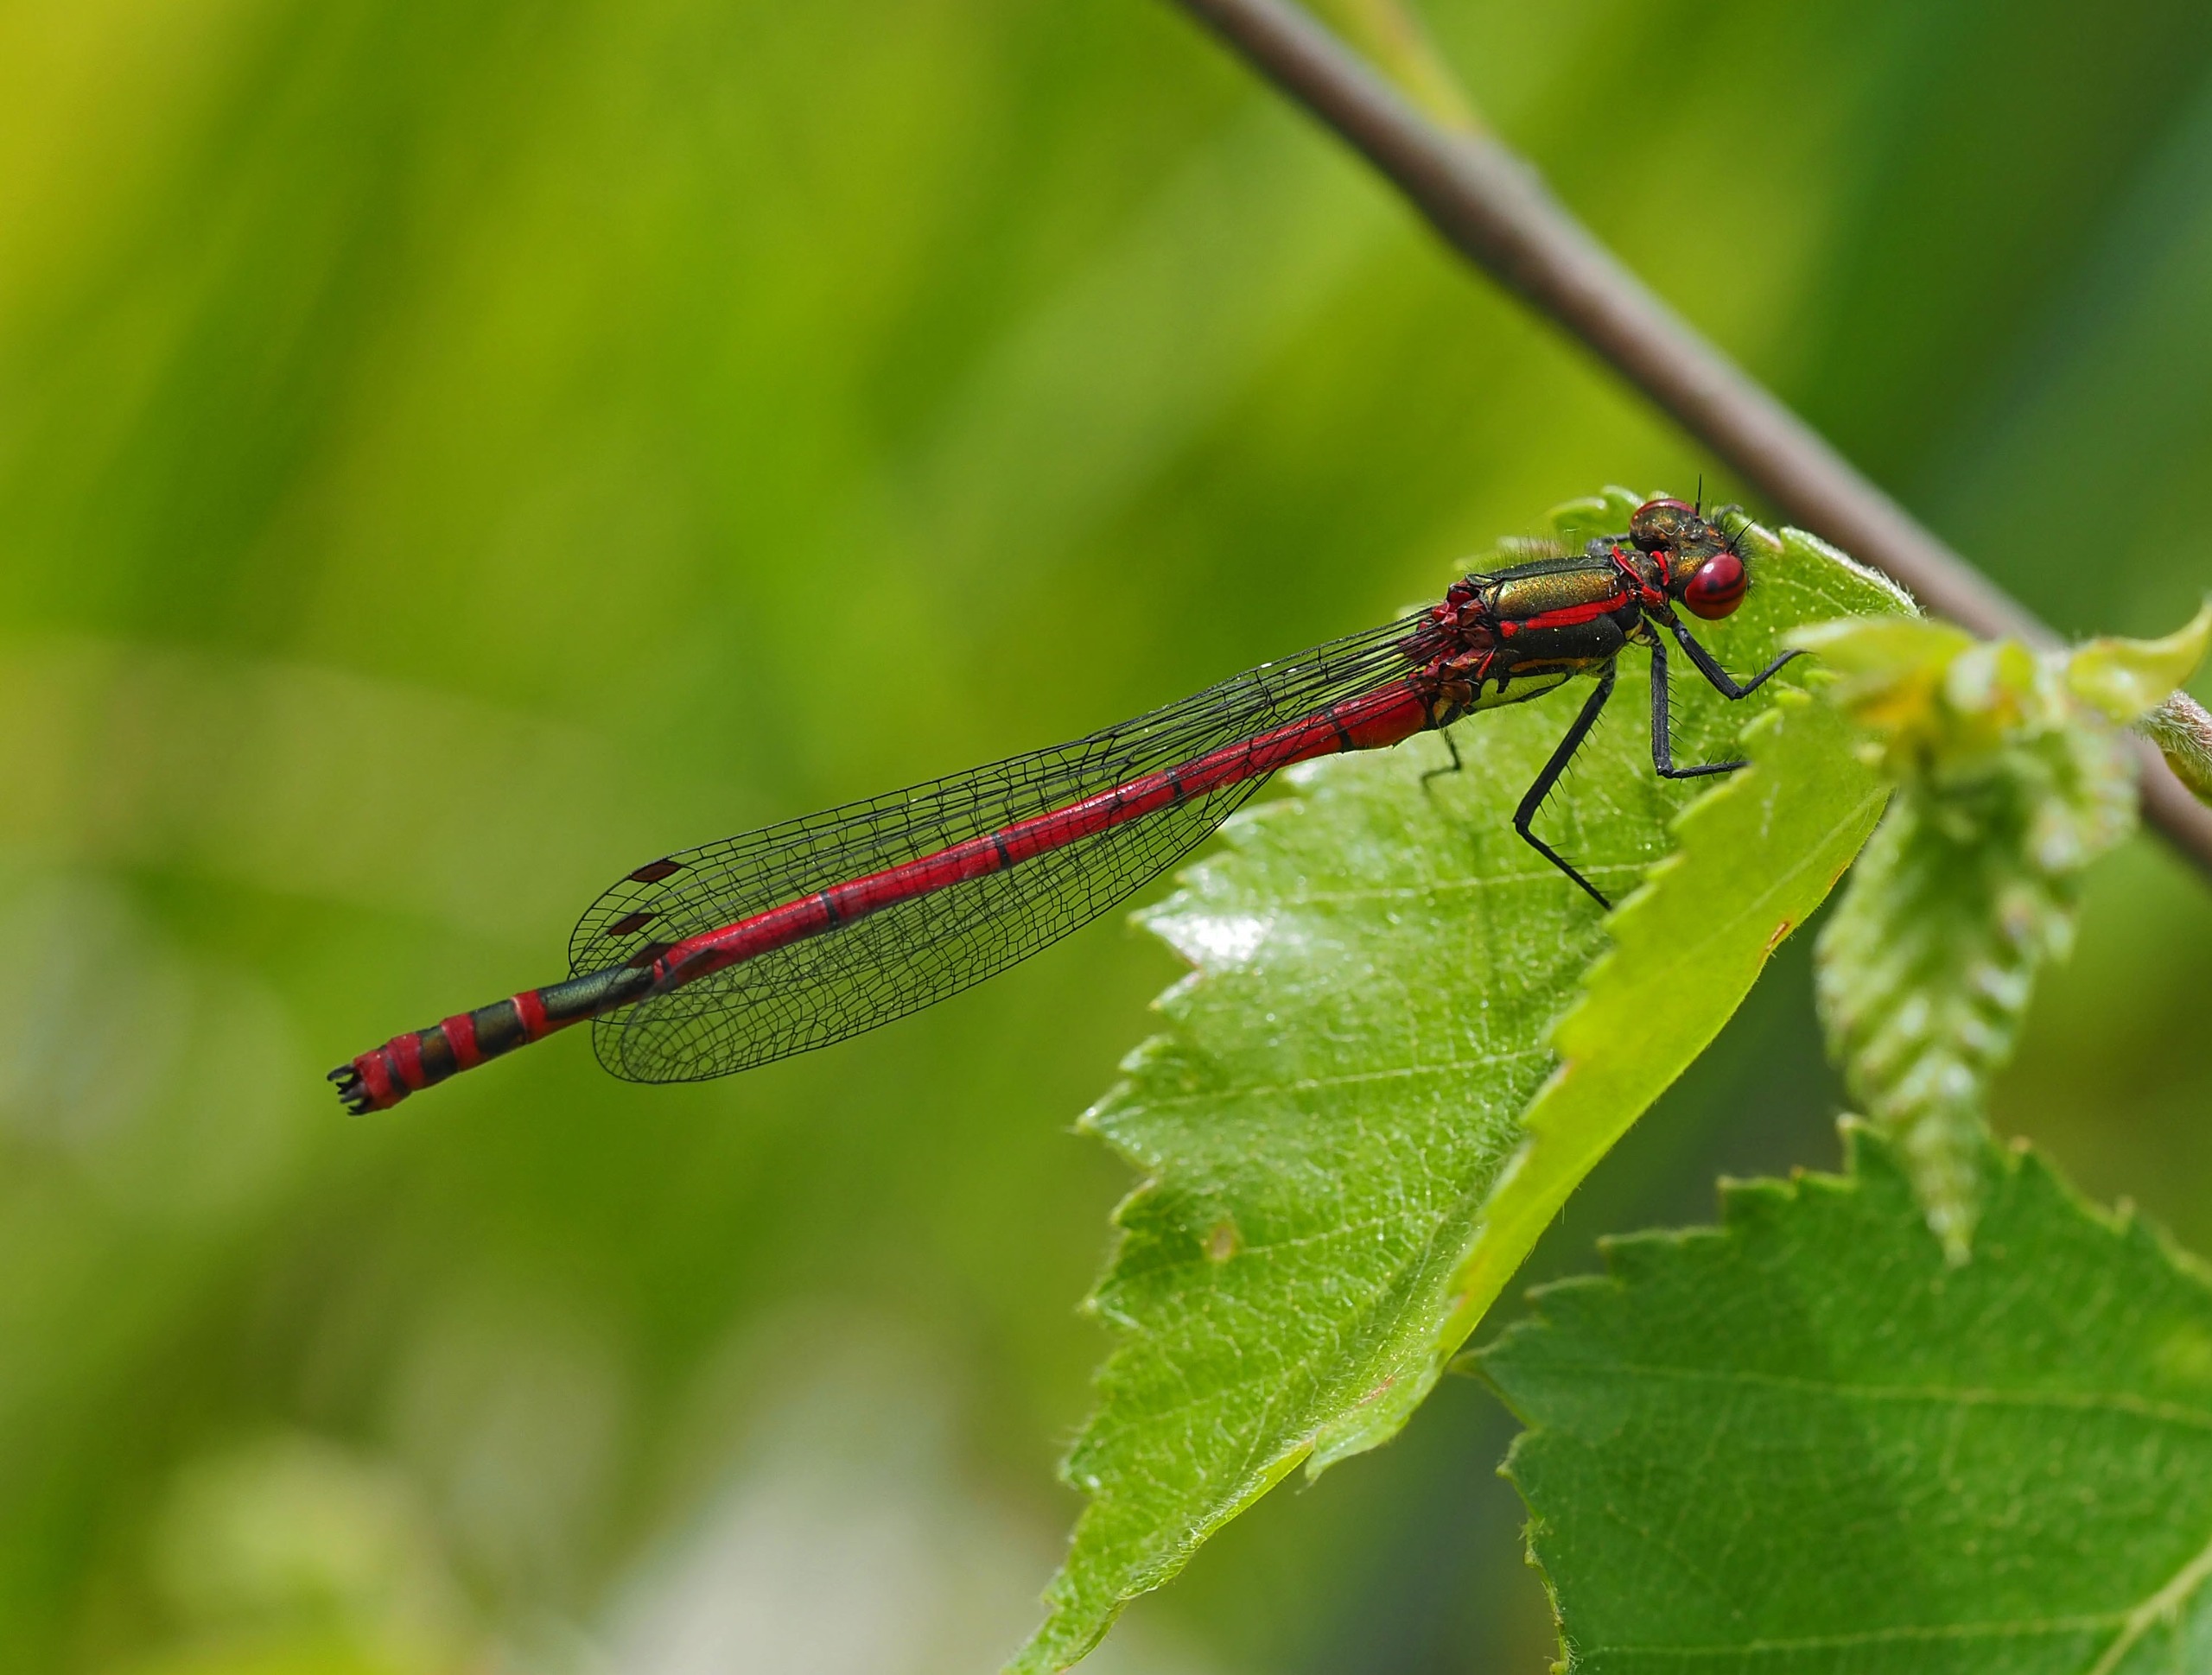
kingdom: Animalia
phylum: Arthropoda
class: Insecta
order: Odonata
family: Coenagrionidae
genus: Pyrrhosoma
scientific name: Pyrrhosoma nymphula
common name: Rød vandnymfe
